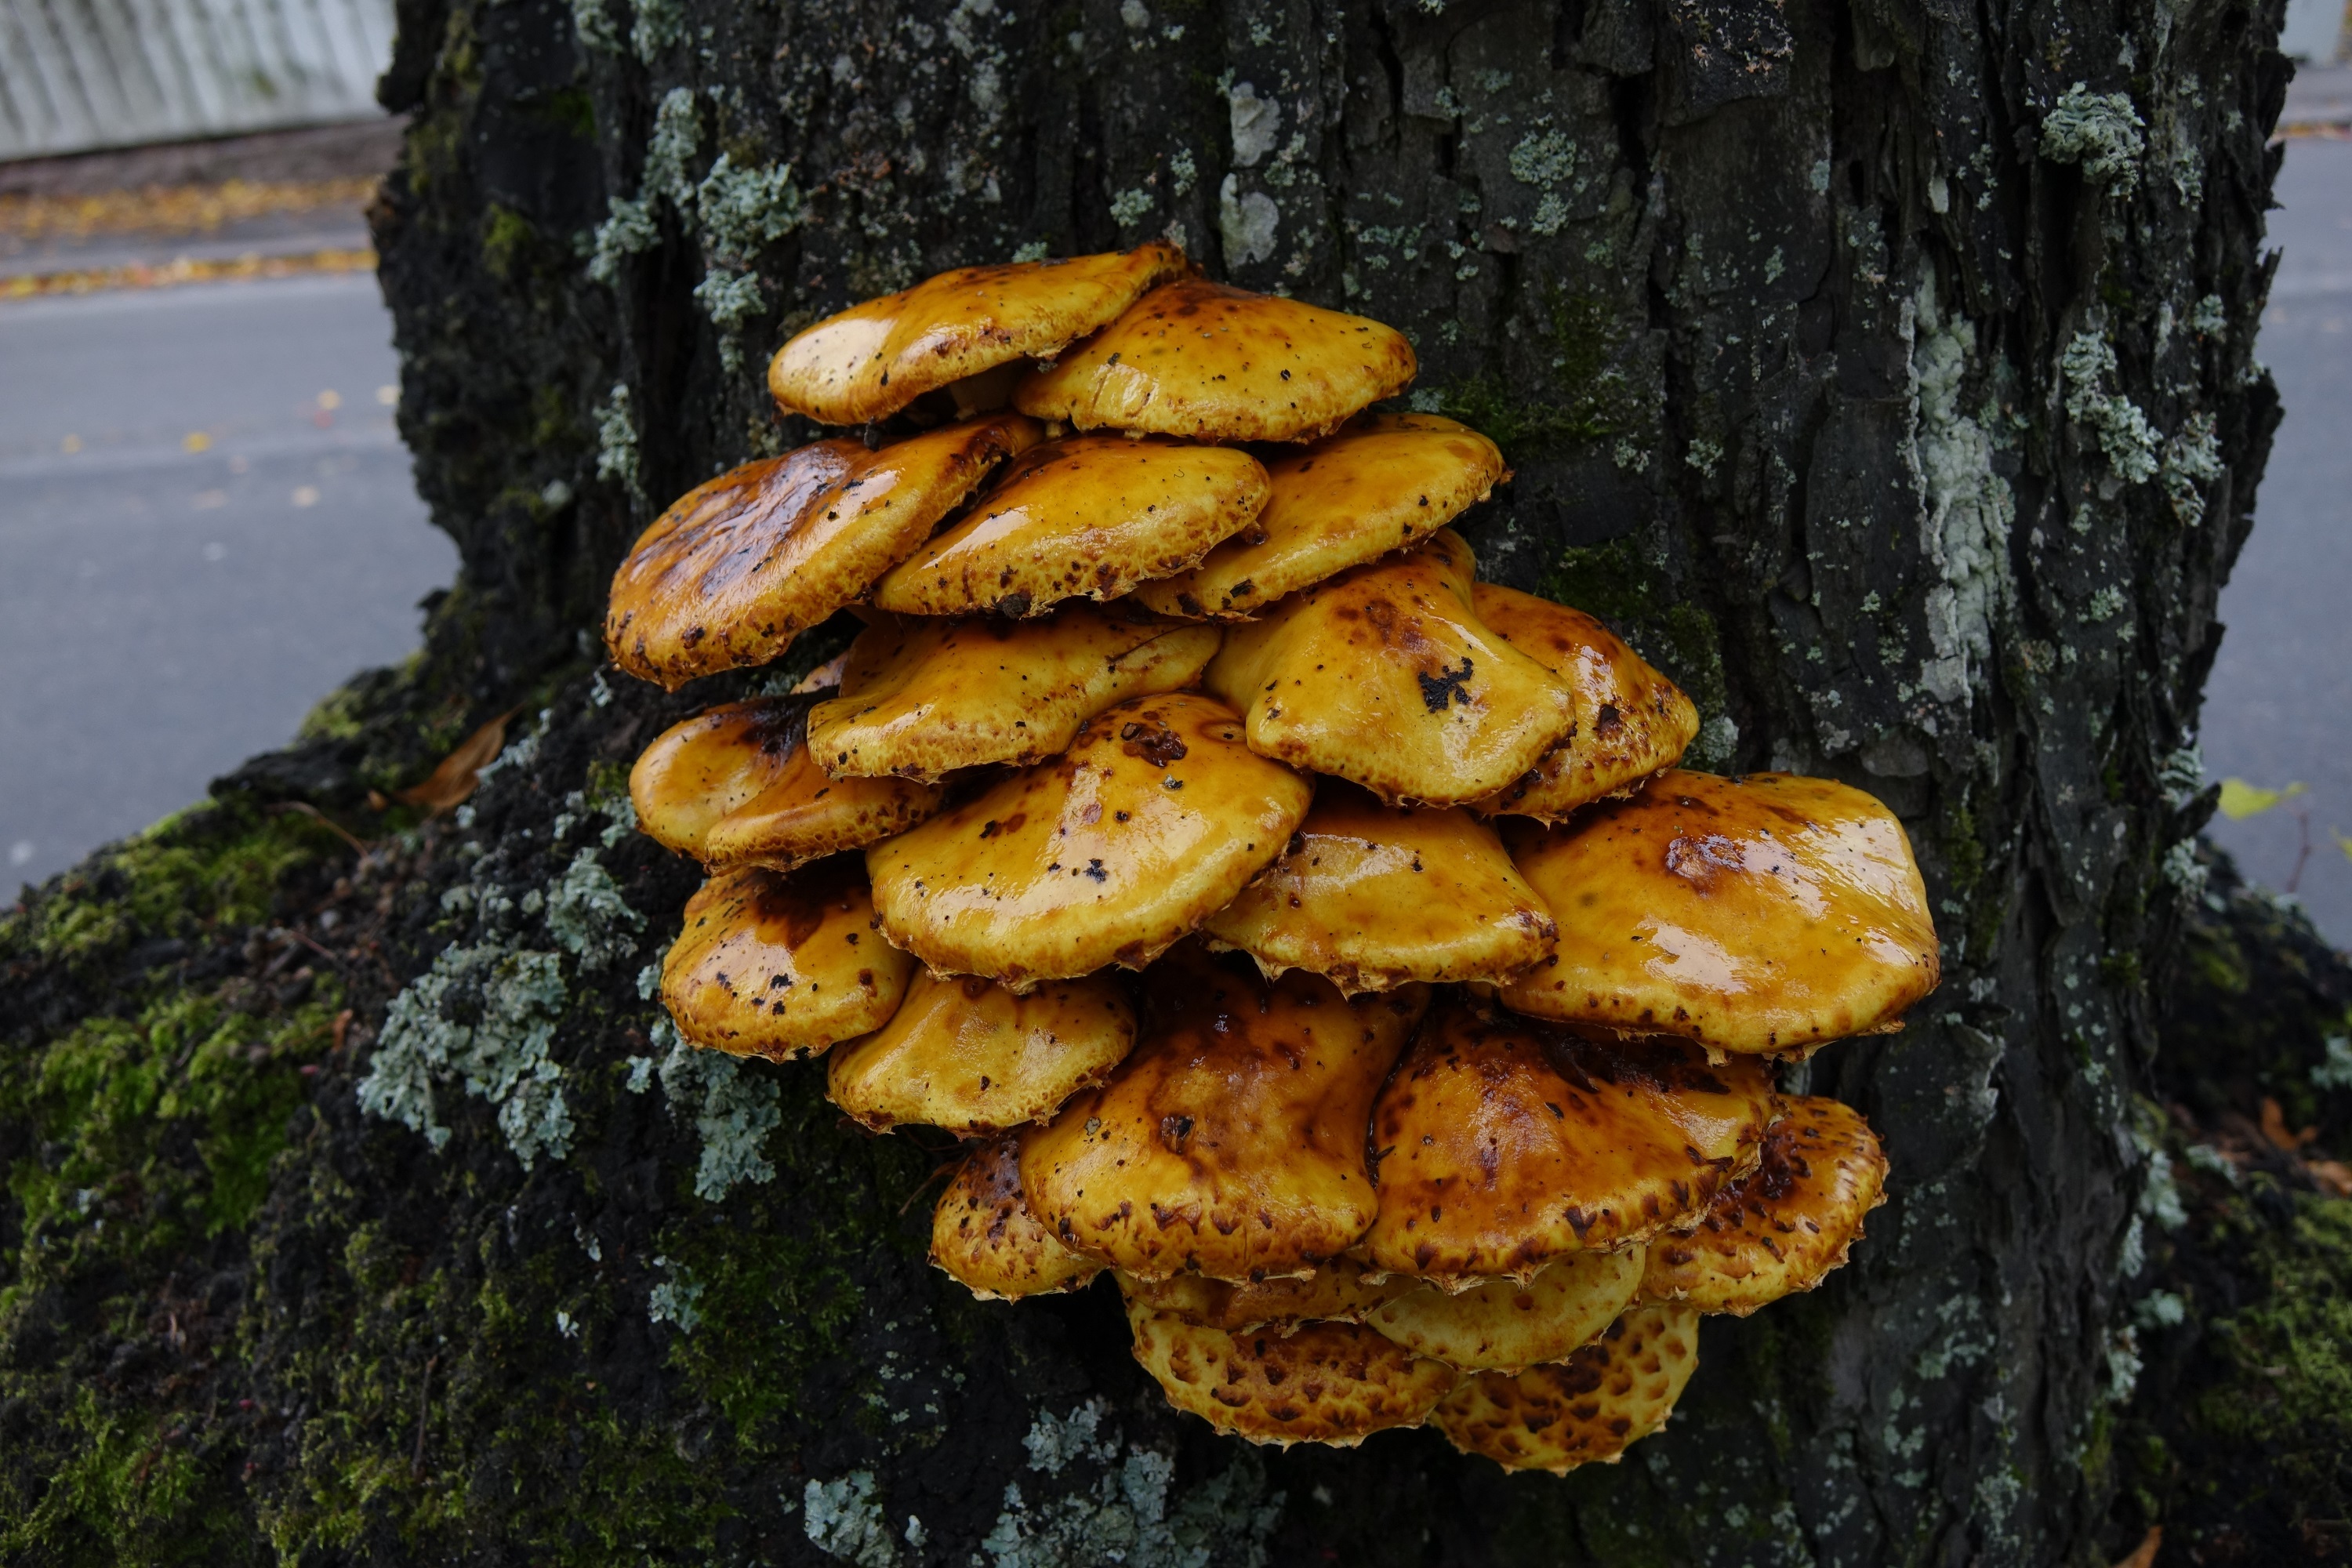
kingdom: Fungi
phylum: Basidiomycota
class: Agaricomycetes
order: Agaricales
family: Strophariaceae
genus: Pholiota
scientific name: Pholiota limonella
